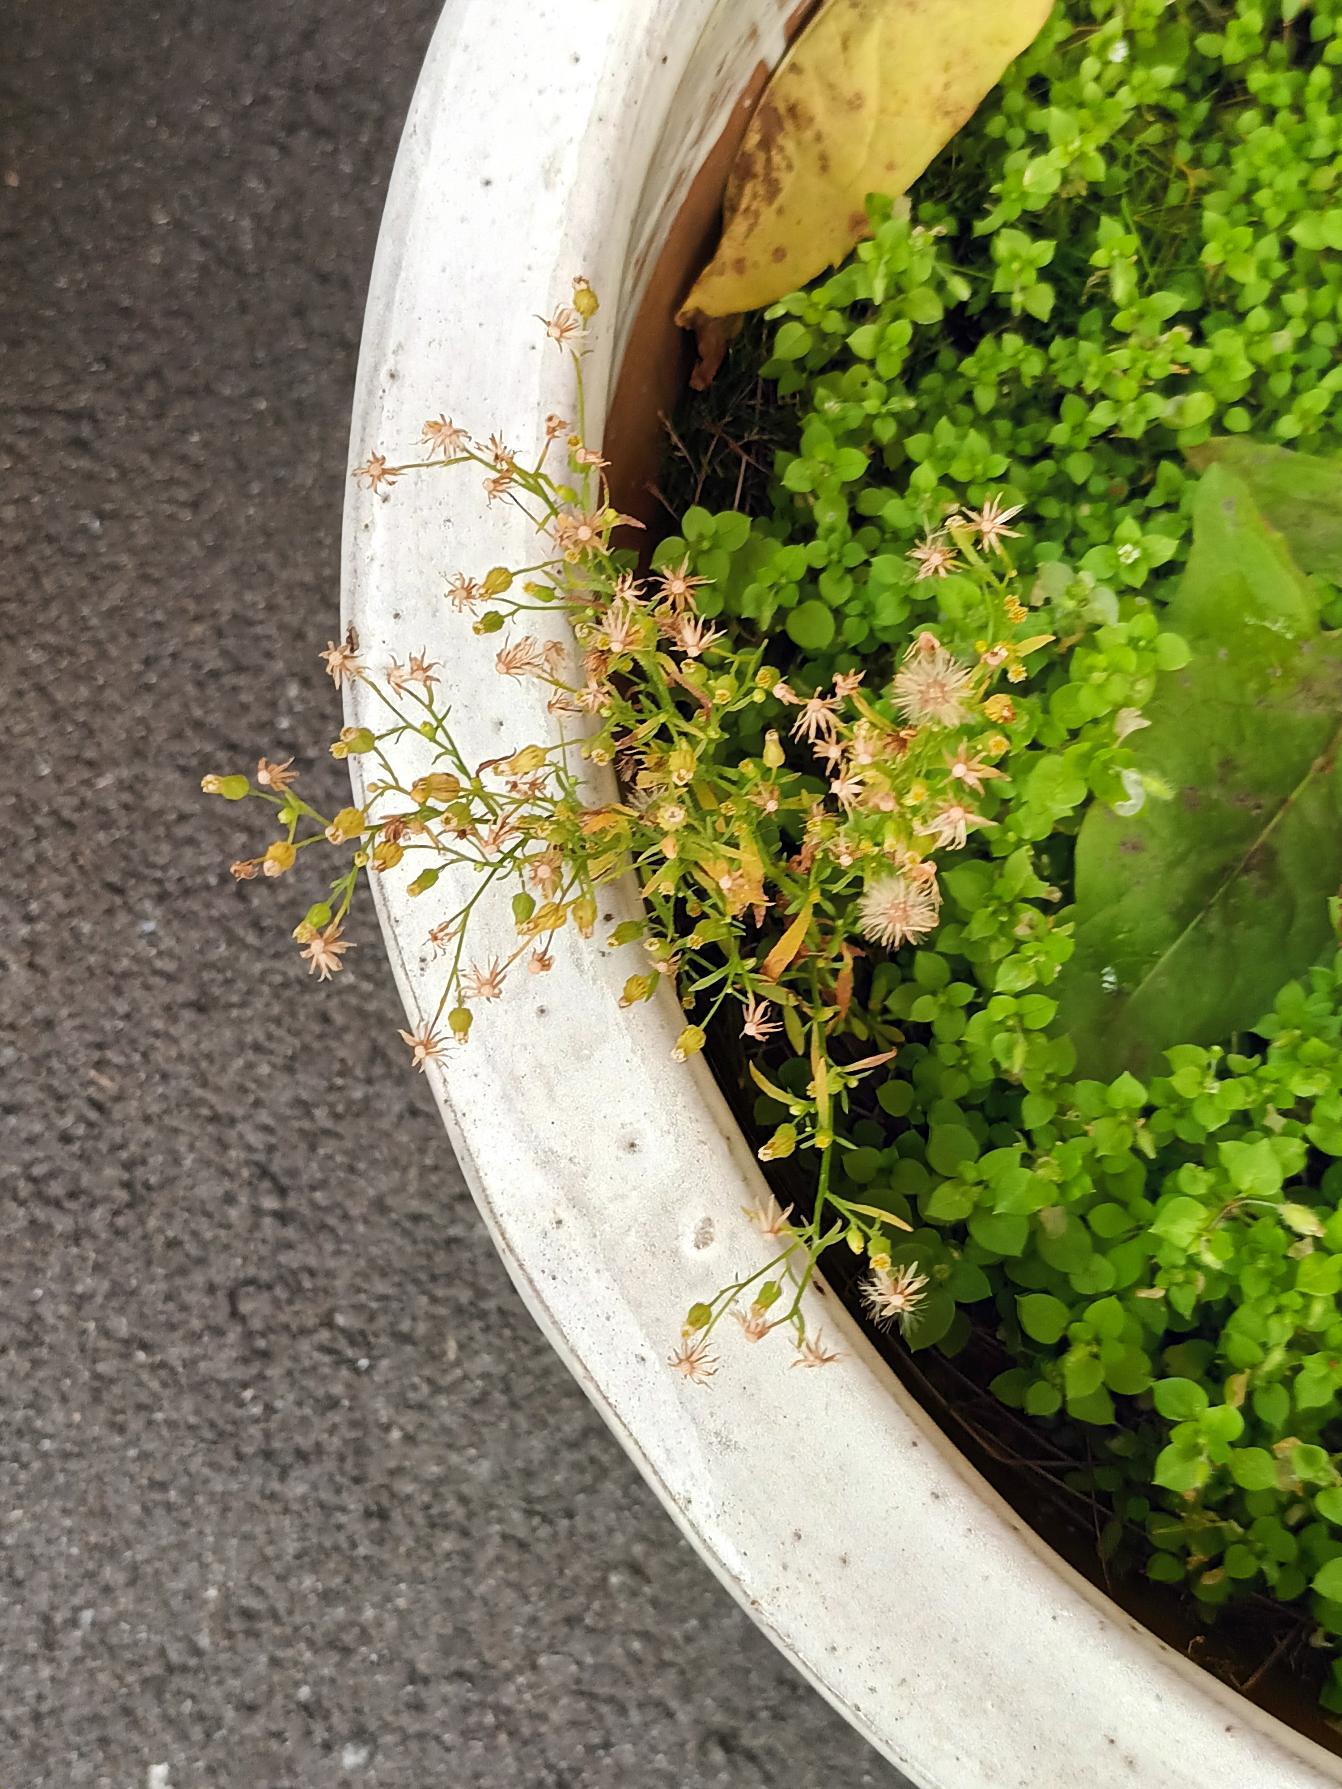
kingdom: Plantae
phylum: Tracheophyta
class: Magnoliopsida
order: Asterales
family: Asteraceae
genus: Erigeron
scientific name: Erigeron canadensis
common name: Kanadisk bakkestjerne
